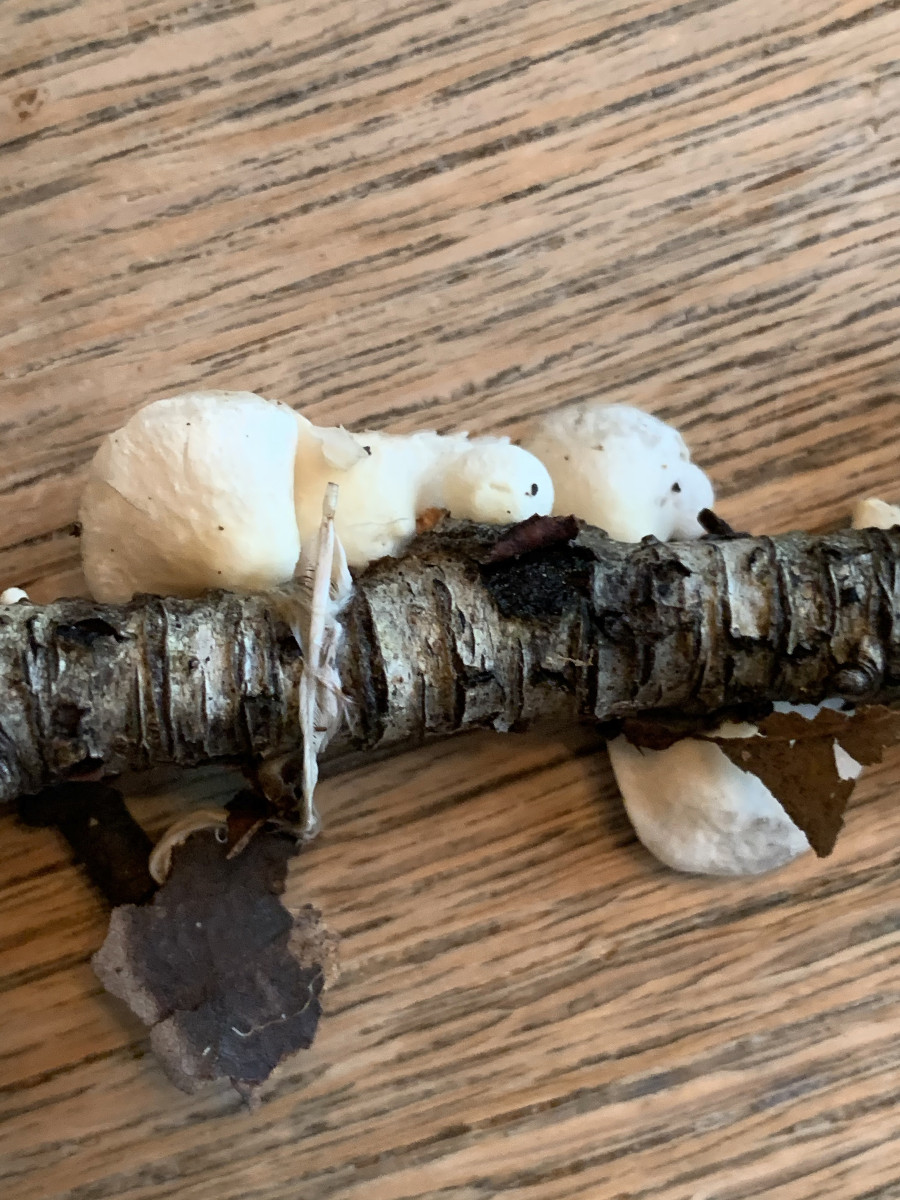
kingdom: Fungi
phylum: Basidiomycota
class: Agaricomycetes
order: Agaricales
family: Crepidotaceae
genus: Crepidotus
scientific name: Crepidotus luteolus
